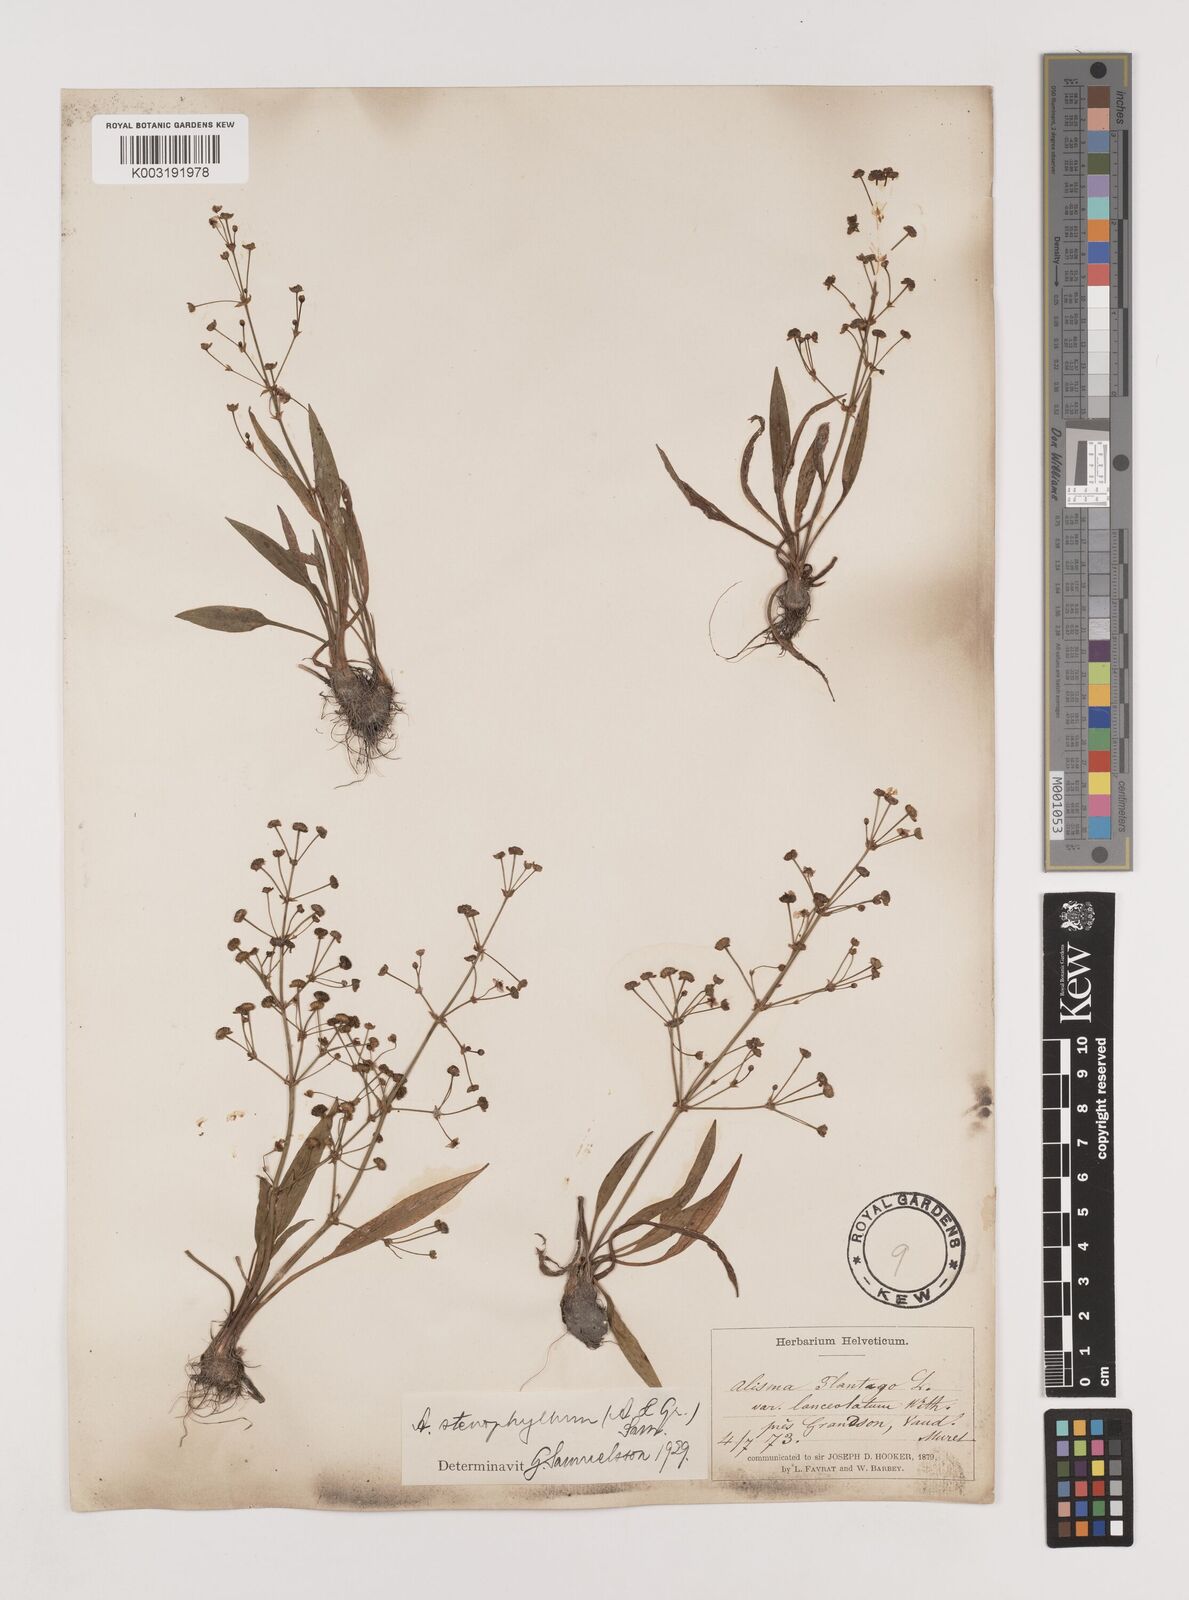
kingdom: Plantae
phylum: Tracheophyta
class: Liliopsida
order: Alismatales
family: Alismataceae
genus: Alisma
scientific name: Alisma lanceolatum
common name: Narrow-leaved water-plantain
